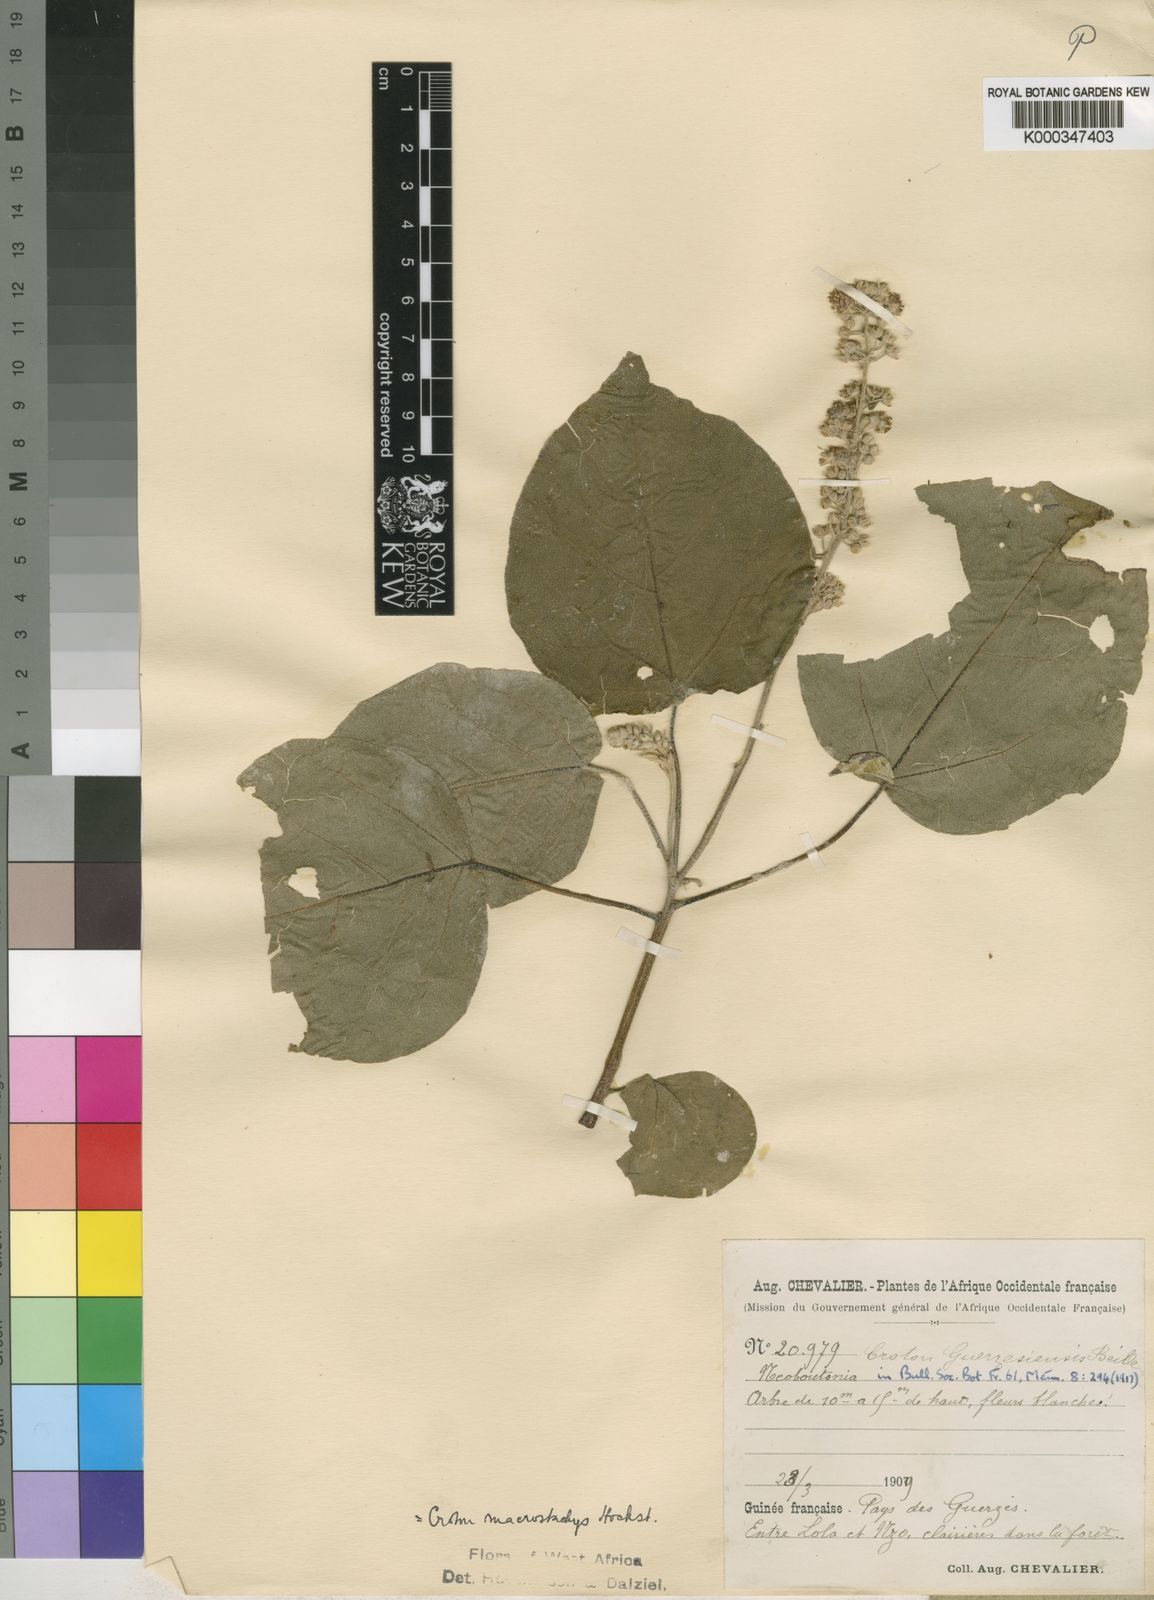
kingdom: Plantae
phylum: Tracheophyta
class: Magnoliopsida
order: Malpighiales
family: Euphorbiaceae
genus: Croton
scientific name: Croton macrostachyus
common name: Mutundu
